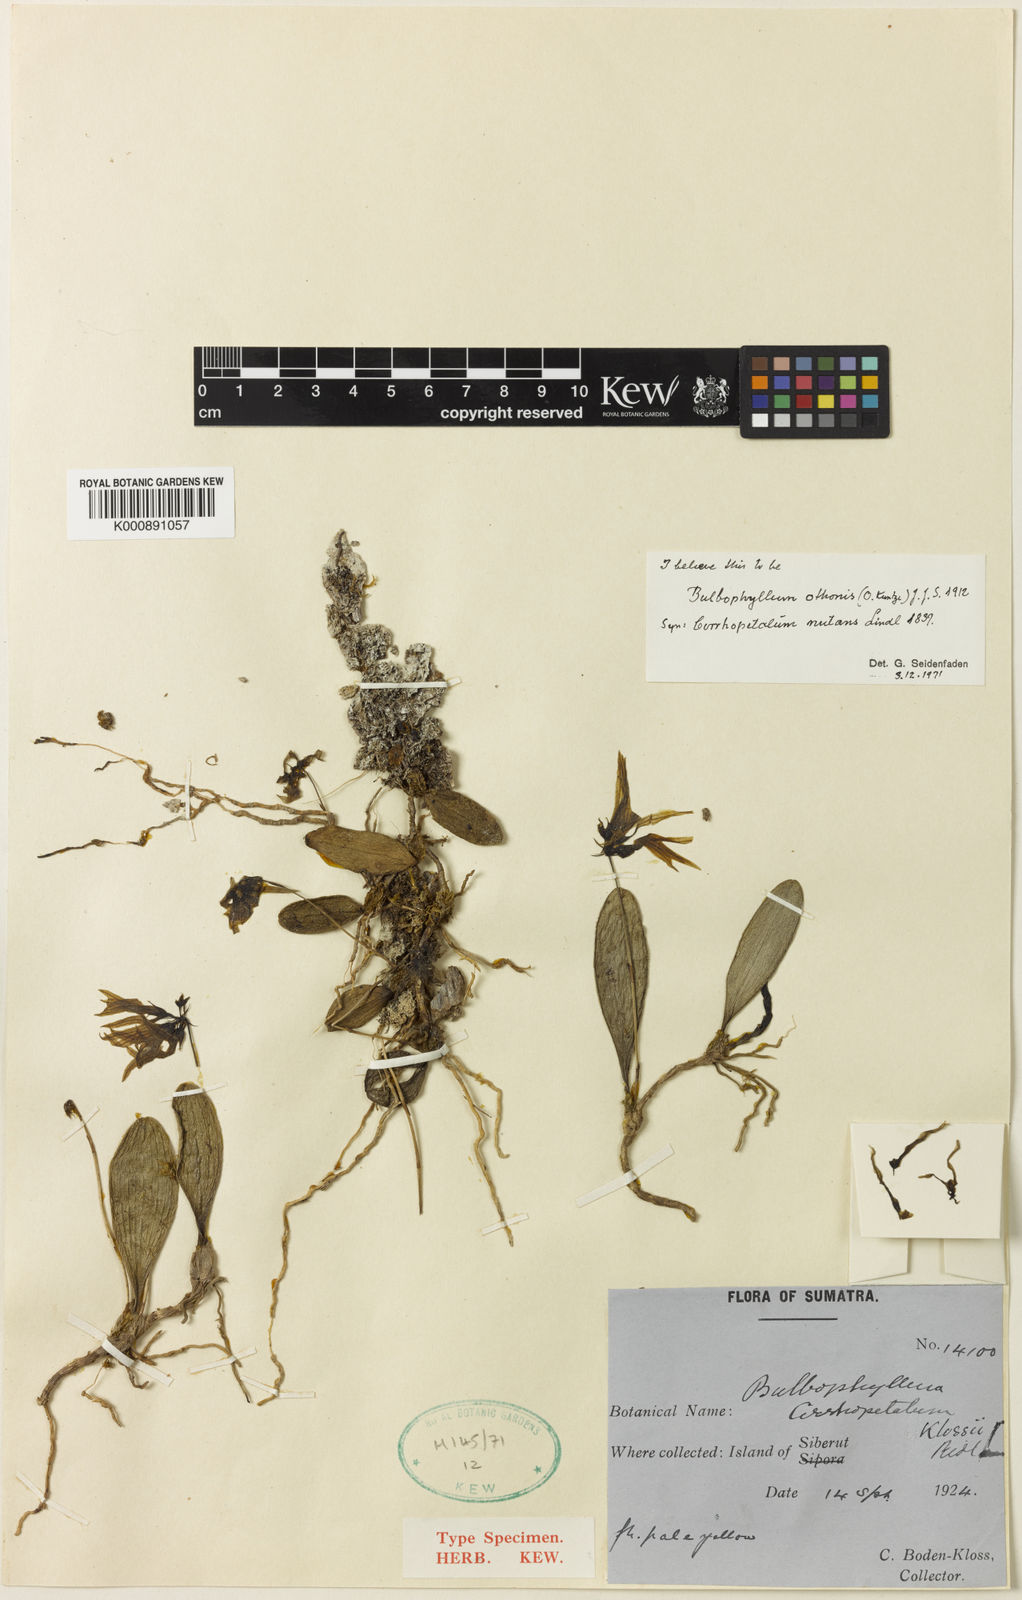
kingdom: Plantae
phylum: Tracheophyta
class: Liliopsida
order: Asparagales
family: Orchidaceae
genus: Bulbophyllum
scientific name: Bulbophyllum othonis
